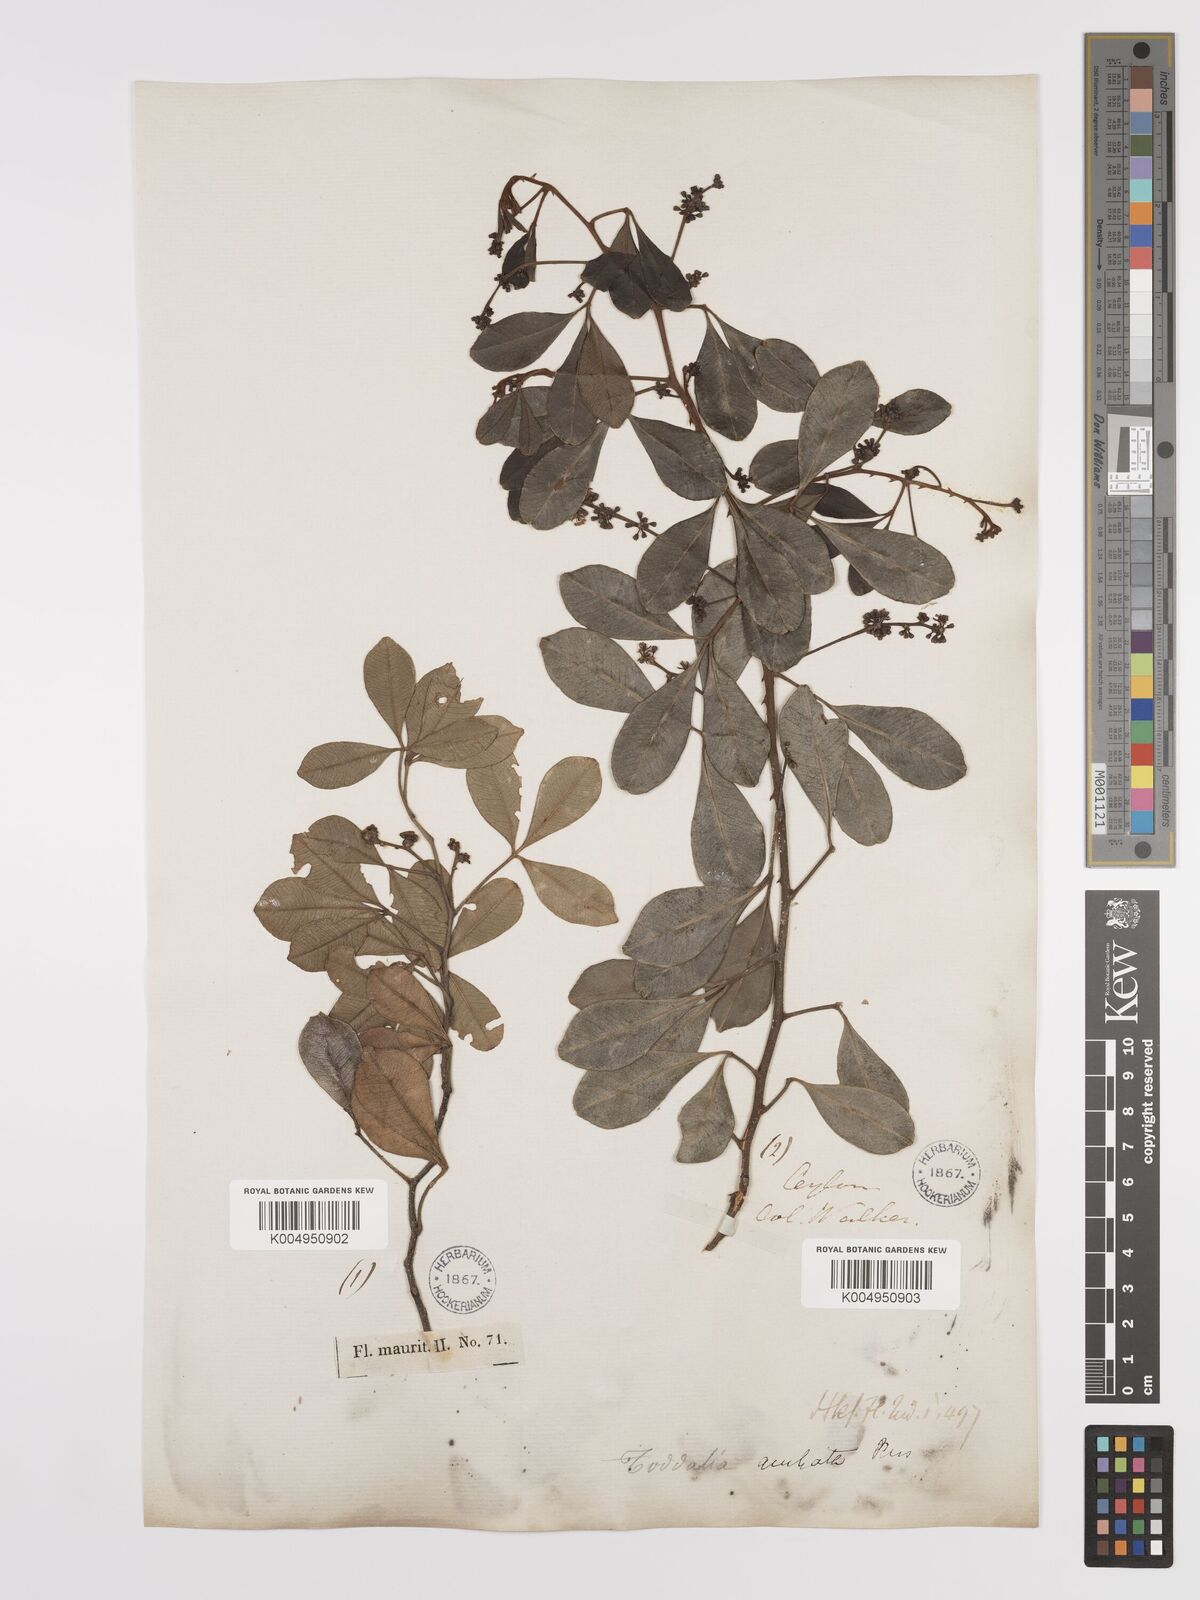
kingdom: Plantae
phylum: Tracheophyta
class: Magnoliopsida
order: Sapindales
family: Rutaceae
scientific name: Rutaceae
